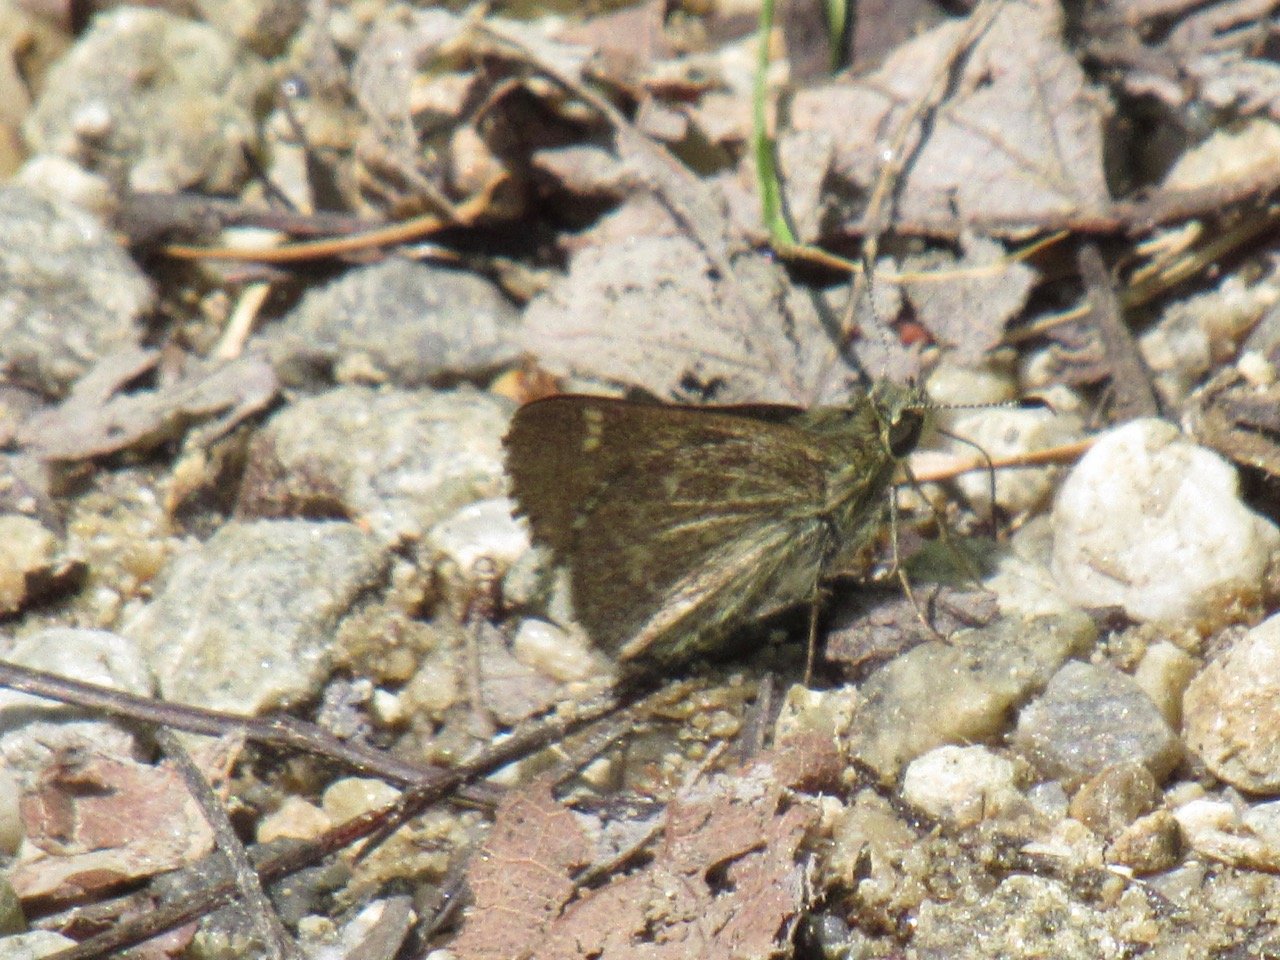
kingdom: Animalia
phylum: Arthropoda
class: Insecta
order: Lepidoptera
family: Hesperiidae
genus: Mastor
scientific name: Mastor hegon
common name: Pepper and Salt Skipper
